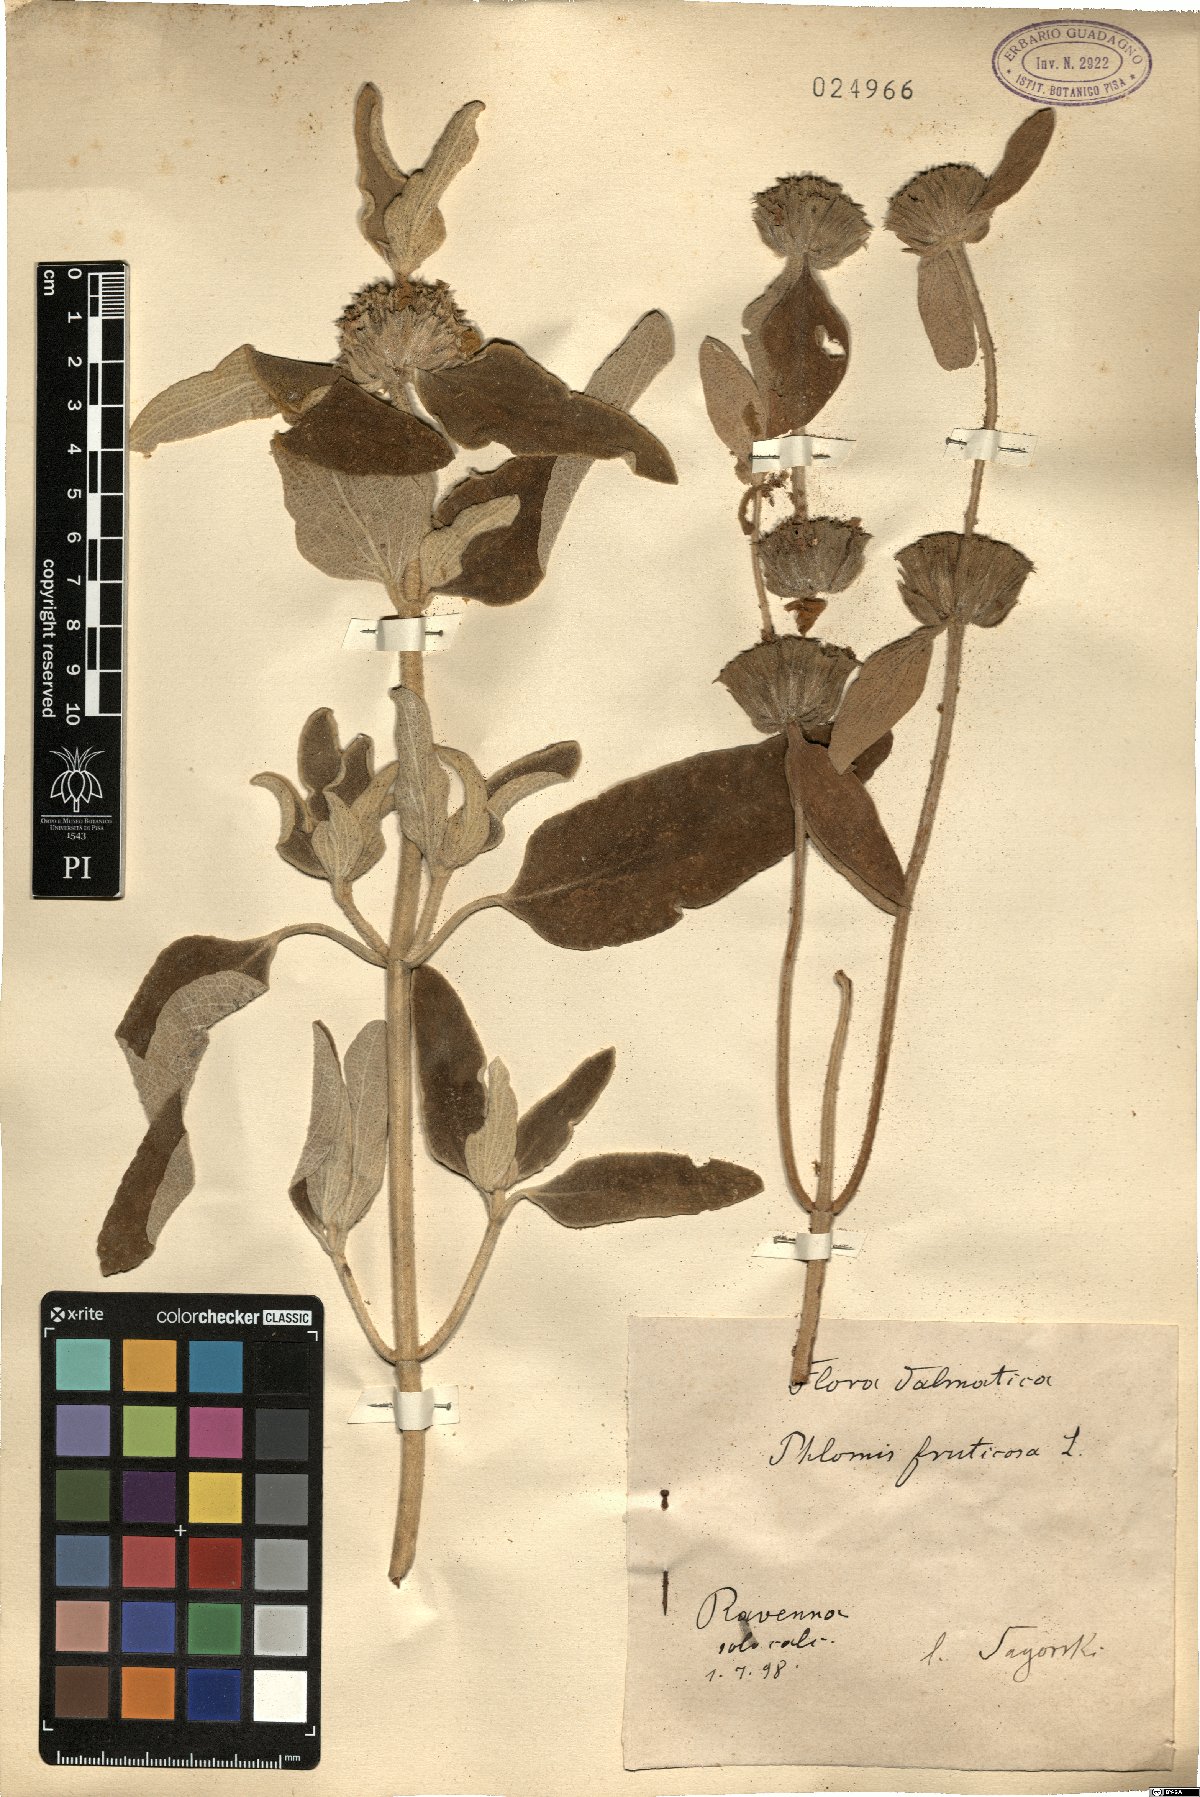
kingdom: Plantae
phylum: Tracheophyta
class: Magnoliopsida
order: Lamiales
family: Lamiaceae
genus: Phlomis
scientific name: Phlomis fruticosa
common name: Jerusalem sage
